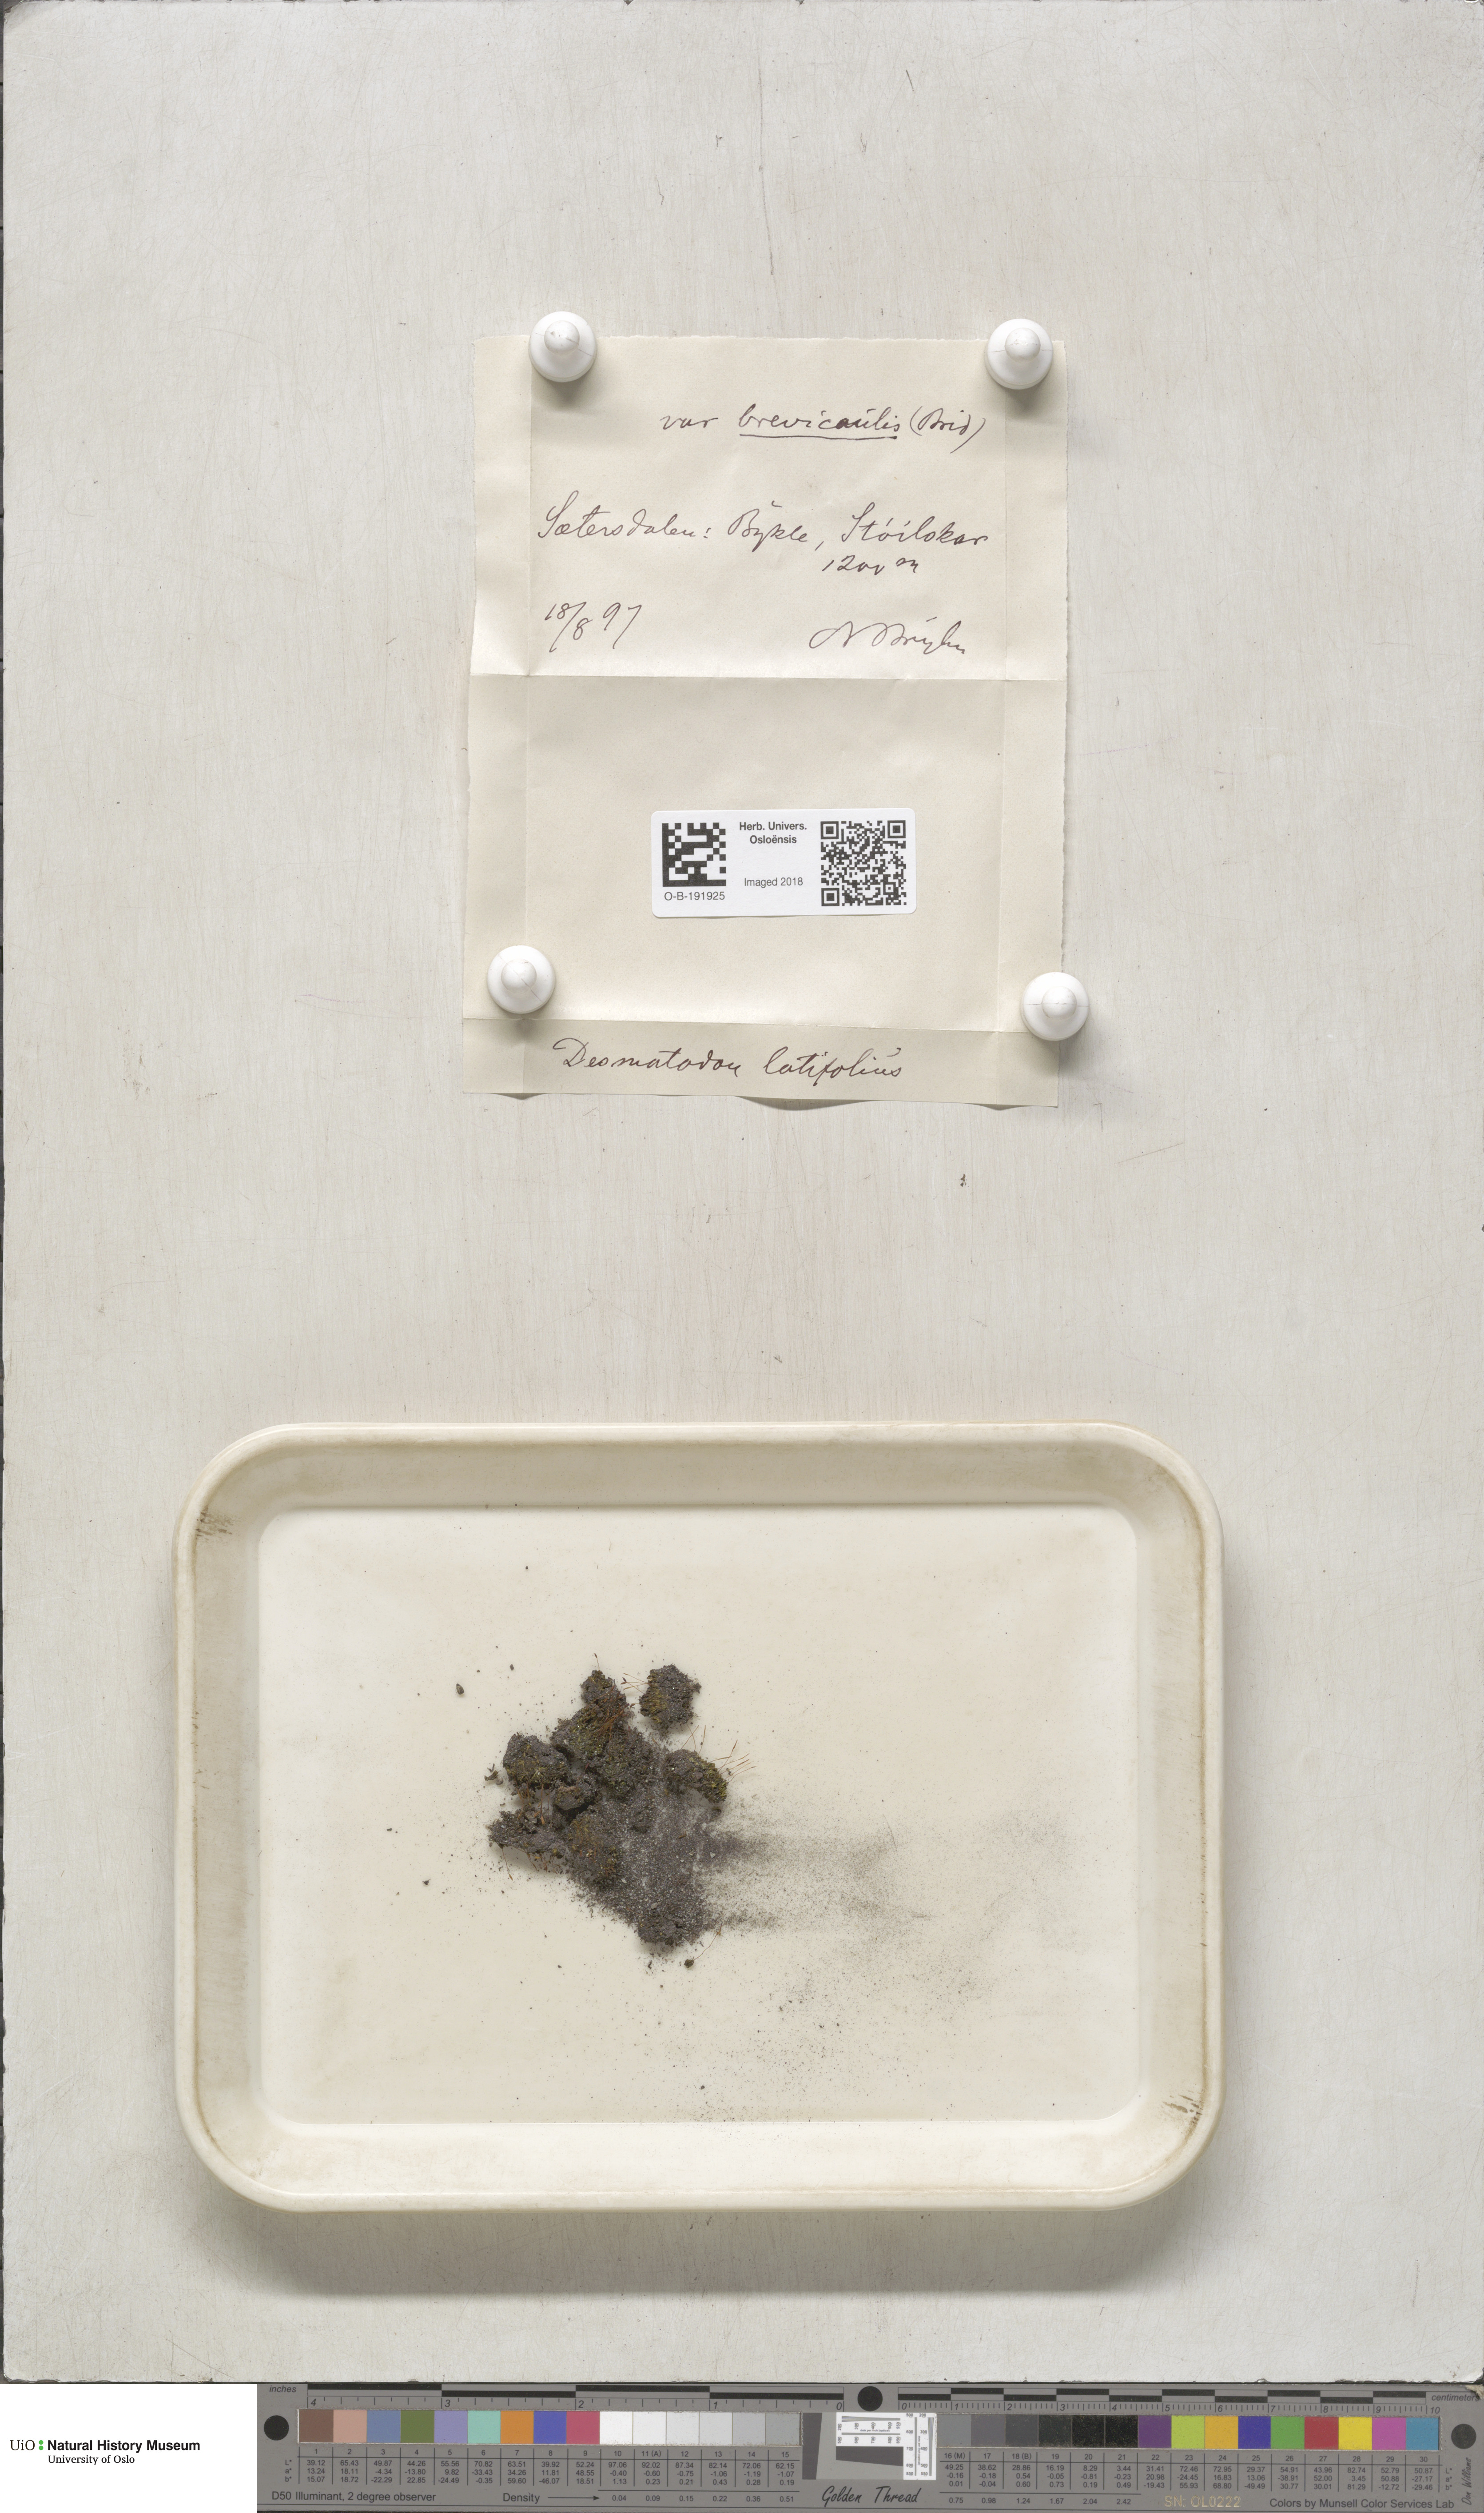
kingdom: Plantae
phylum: Bryophyta
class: Bryopsida
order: Pottiales
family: Pottiaceae
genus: Tortula
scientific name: Tortula hoppeana
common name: Hoppe's screw moss
